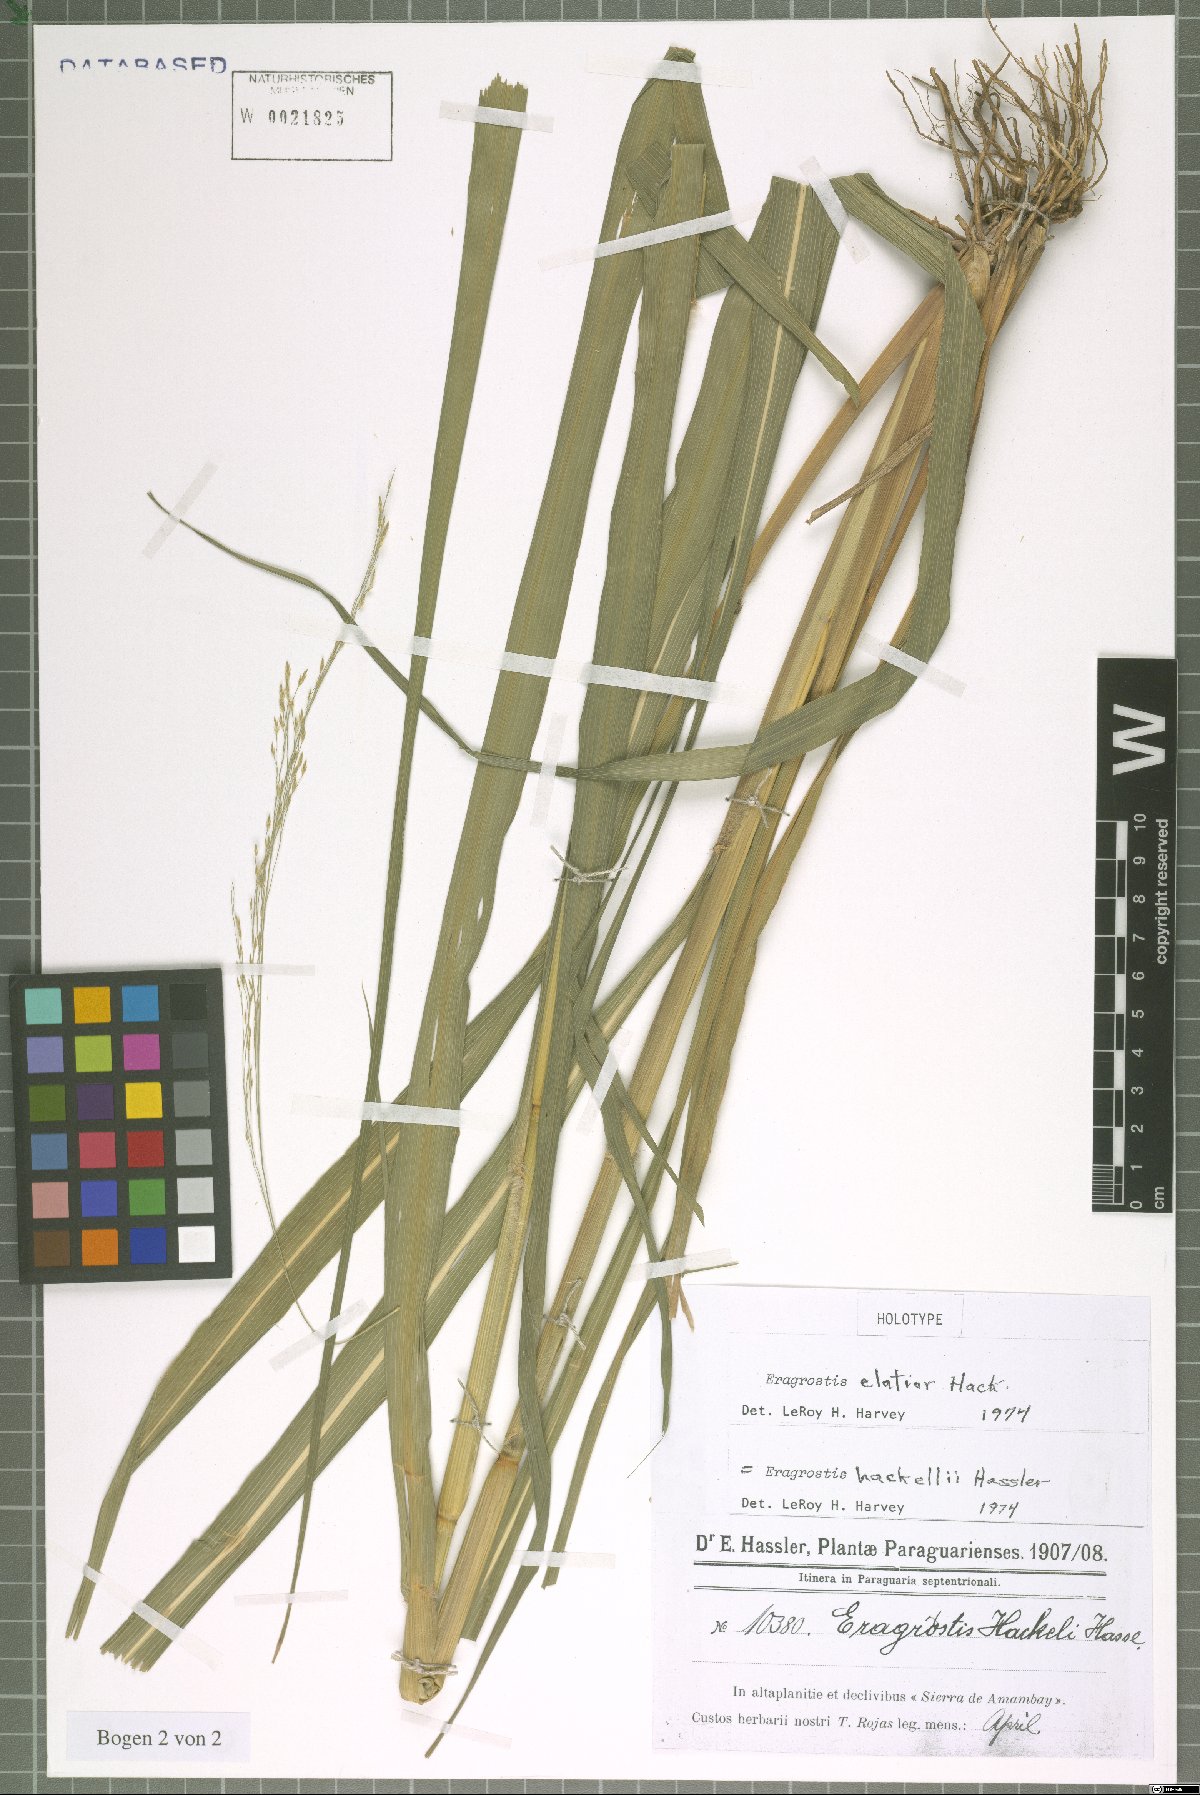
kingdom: Plantae
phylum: Tracheophyta
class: Liliopsida
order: Poales
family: Poaceae
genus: Eragrostis
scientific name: Eragrostis bahiensis
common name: Bahia lovegrass
